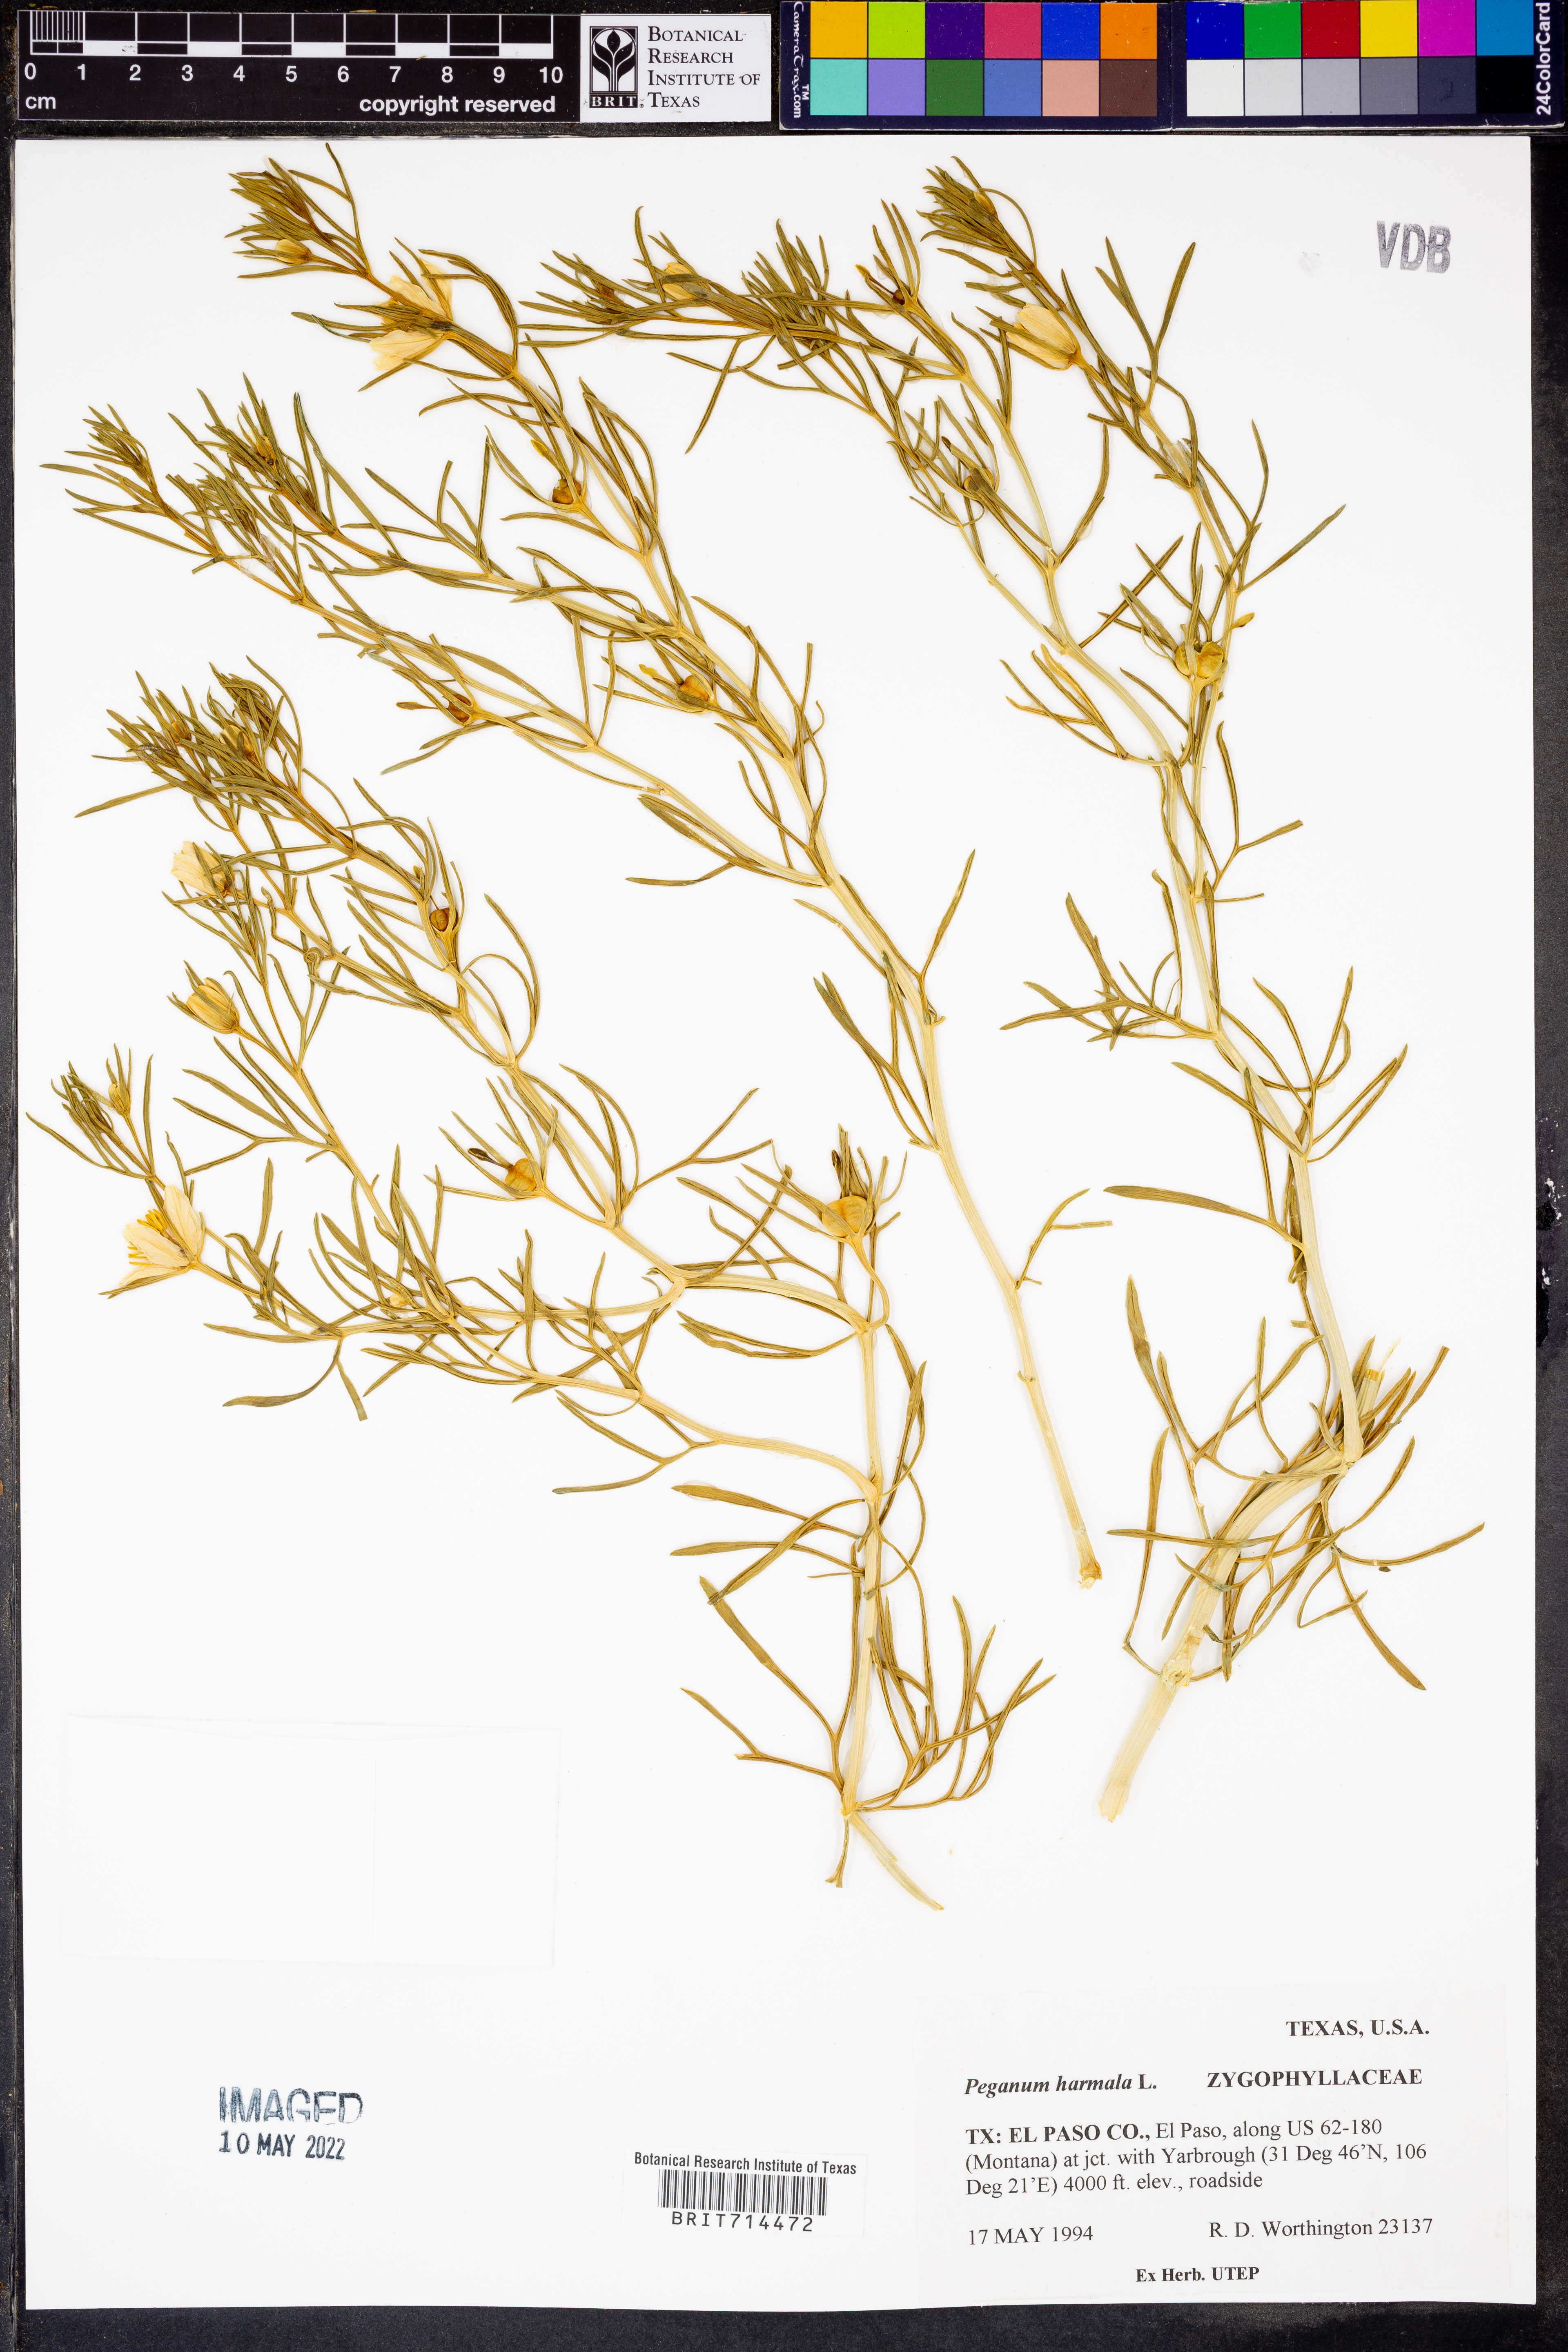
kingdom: Plantae
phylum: Tracheophyta
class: Magnoliopsida
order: Sapindales
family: Tetradiclidaceae
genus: Peganum
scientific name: Peganum harmala
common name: Harmal peganum
